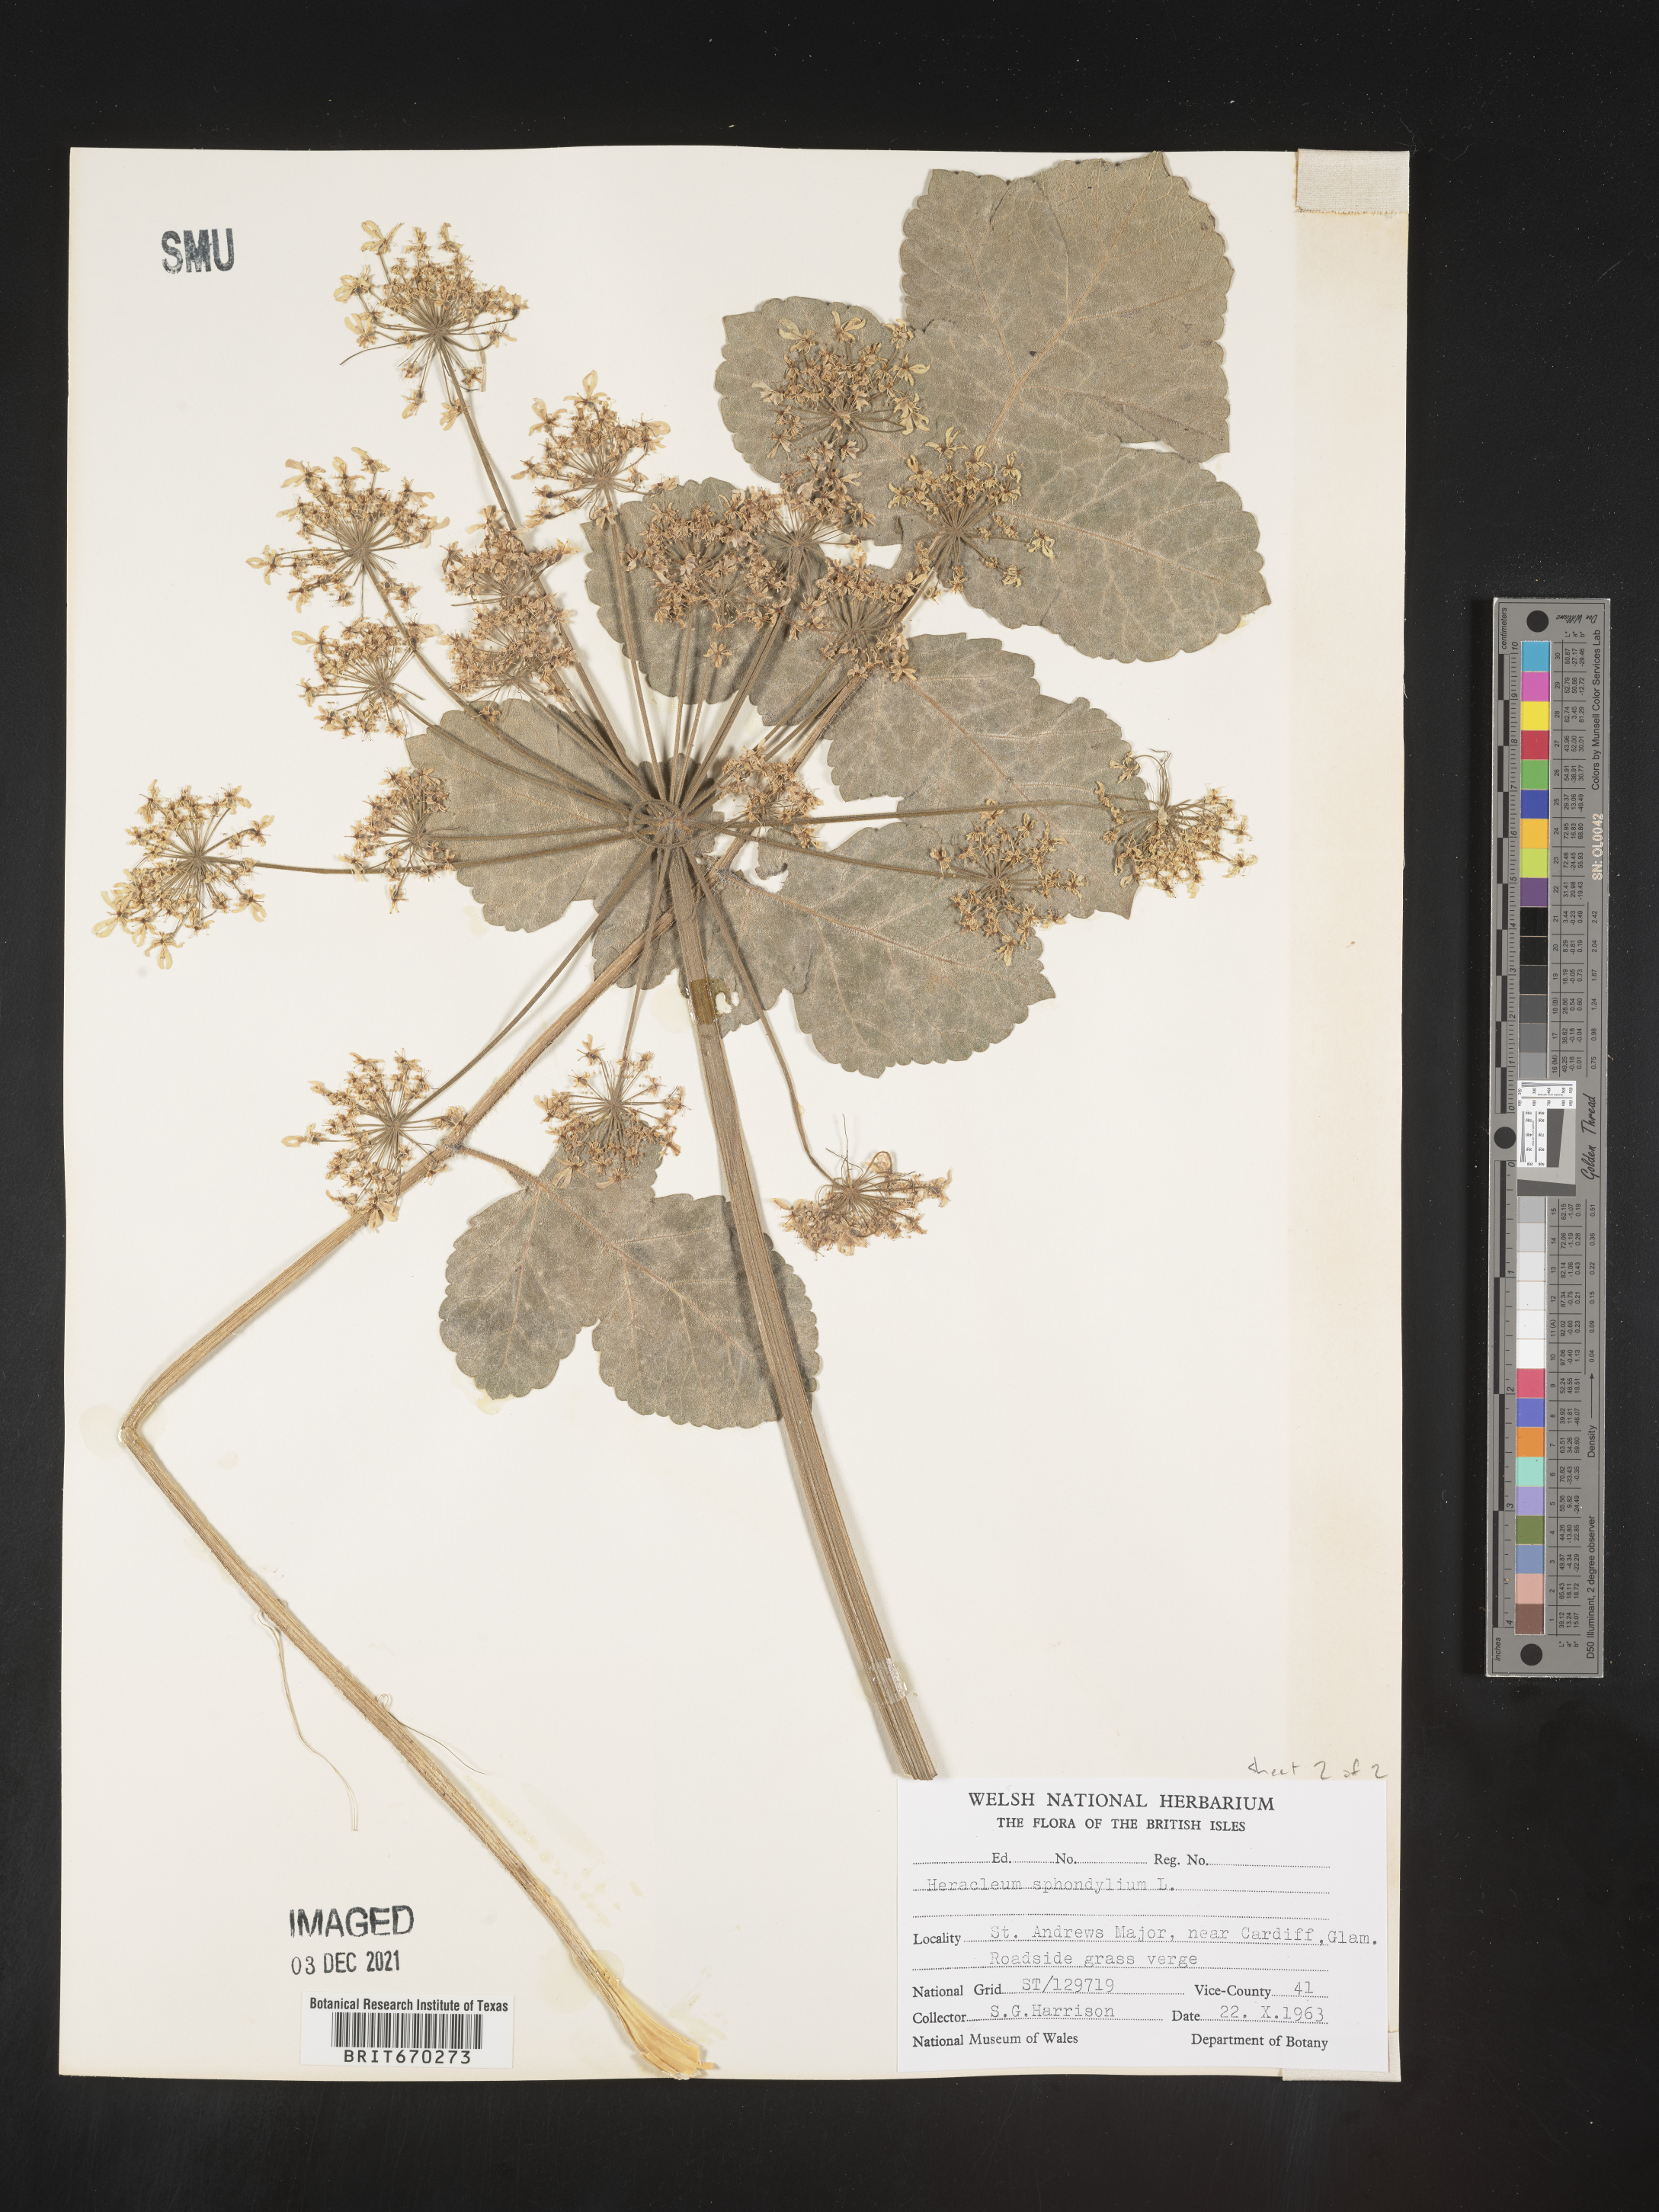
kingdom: Plantae
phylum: Tracheophyta
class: Magnoliopsida
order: Apiales
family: Apiaceae
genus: Heracleum
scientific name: Heracleum
